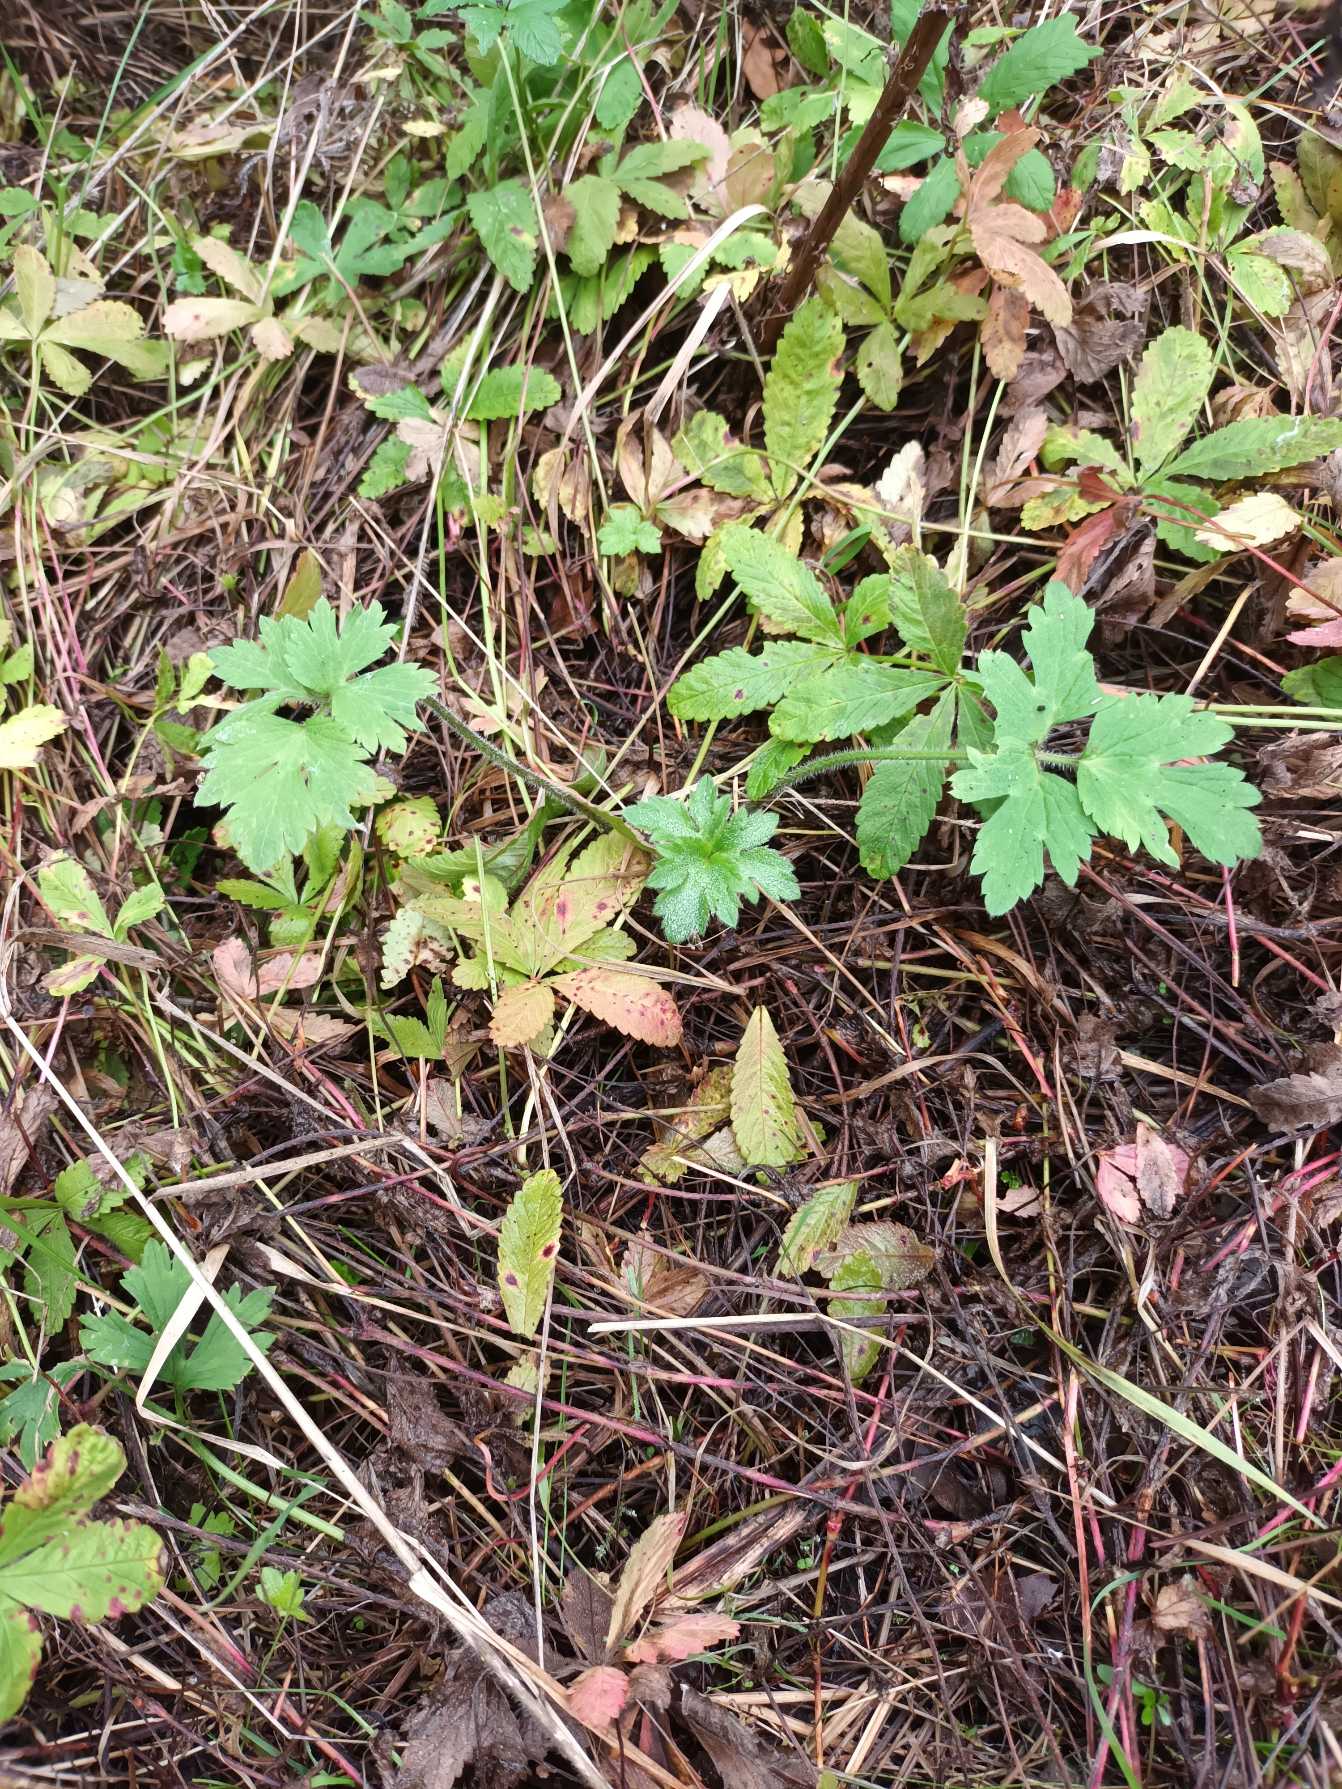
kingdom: Plantae
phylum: Tracheophyta
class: Magnoliopsida
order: Ranunculales
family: Ranunculaceae
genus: Ranunculus
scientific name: Ranunculus repens
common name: Lav ranunkel
